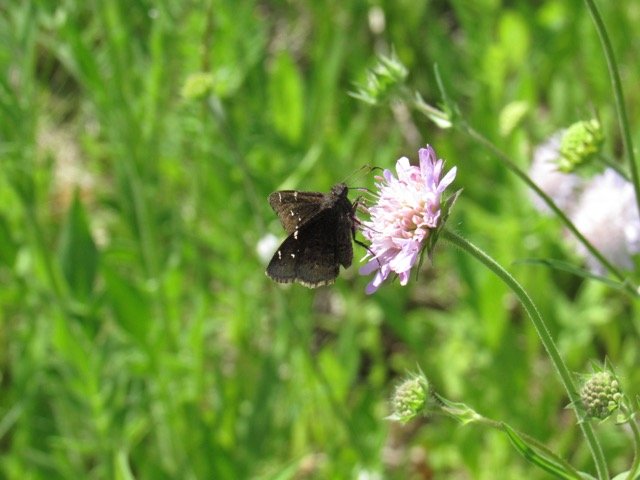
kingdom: Animalia
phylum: Arthropoda
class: Insecta
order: Lepidoptera
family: Hesperiidae
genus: Autochton
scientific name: Autochton
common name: Northern Cloudywing
